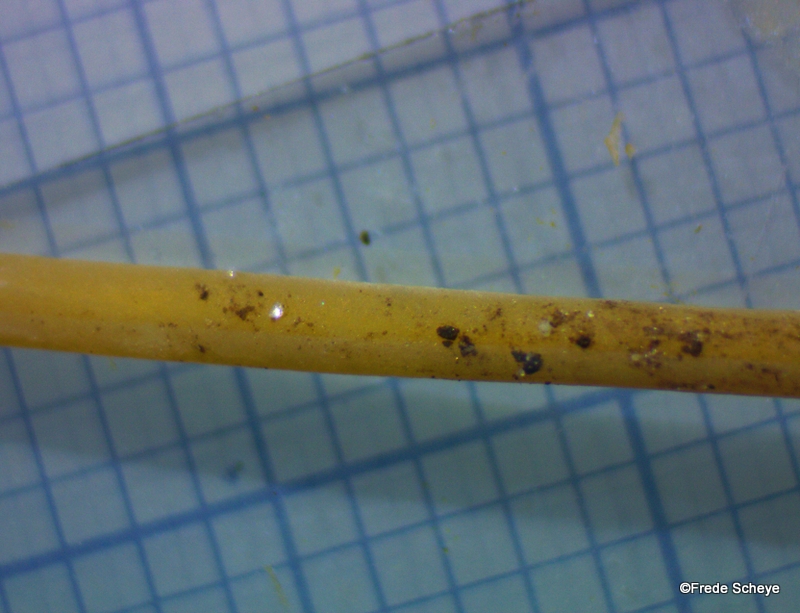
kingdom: Fungi
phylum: Basidiomycota
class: Agaricomycetes
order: Agaricales
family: Typhulaceae
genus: Typhula
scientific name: Typhula juncea
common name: trådagtig rørkølle
